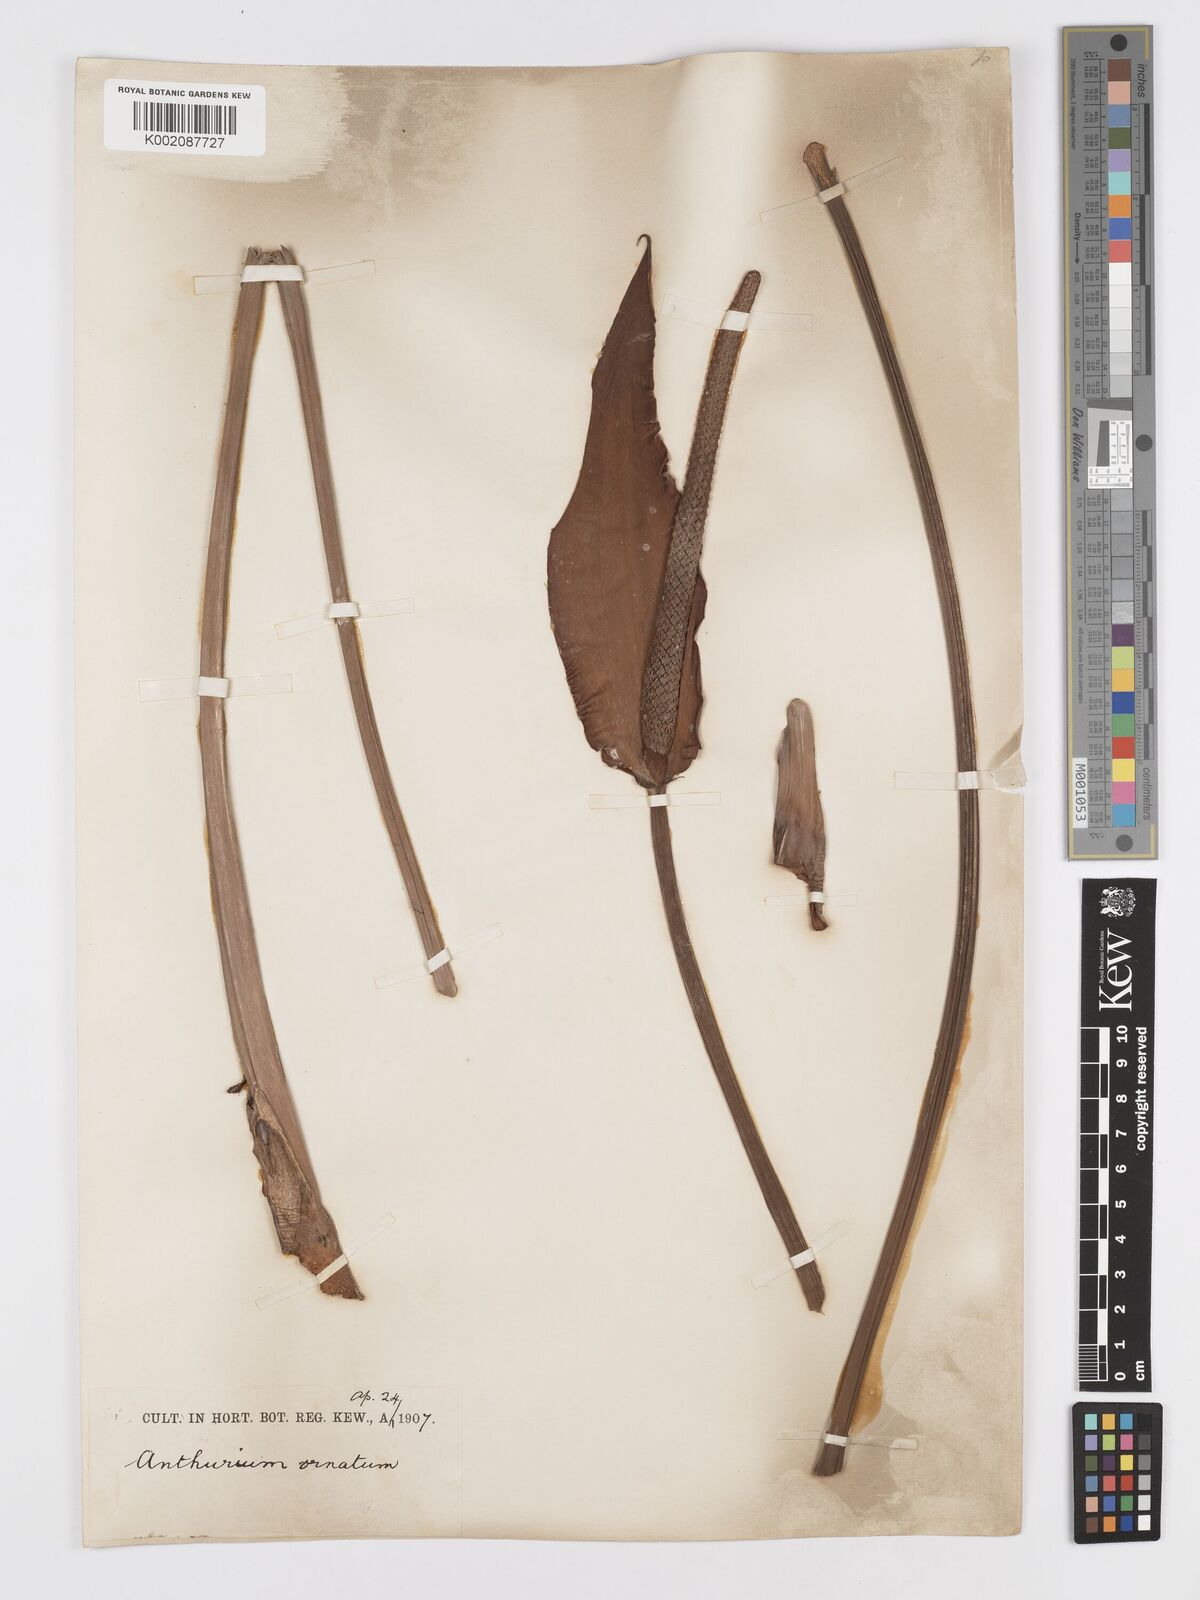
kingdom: Plantae
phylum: Tracheophyta
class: Liliopsida
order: Alismatales
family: Araceae
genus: Anthurium
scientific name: Anthurium lindenianum
